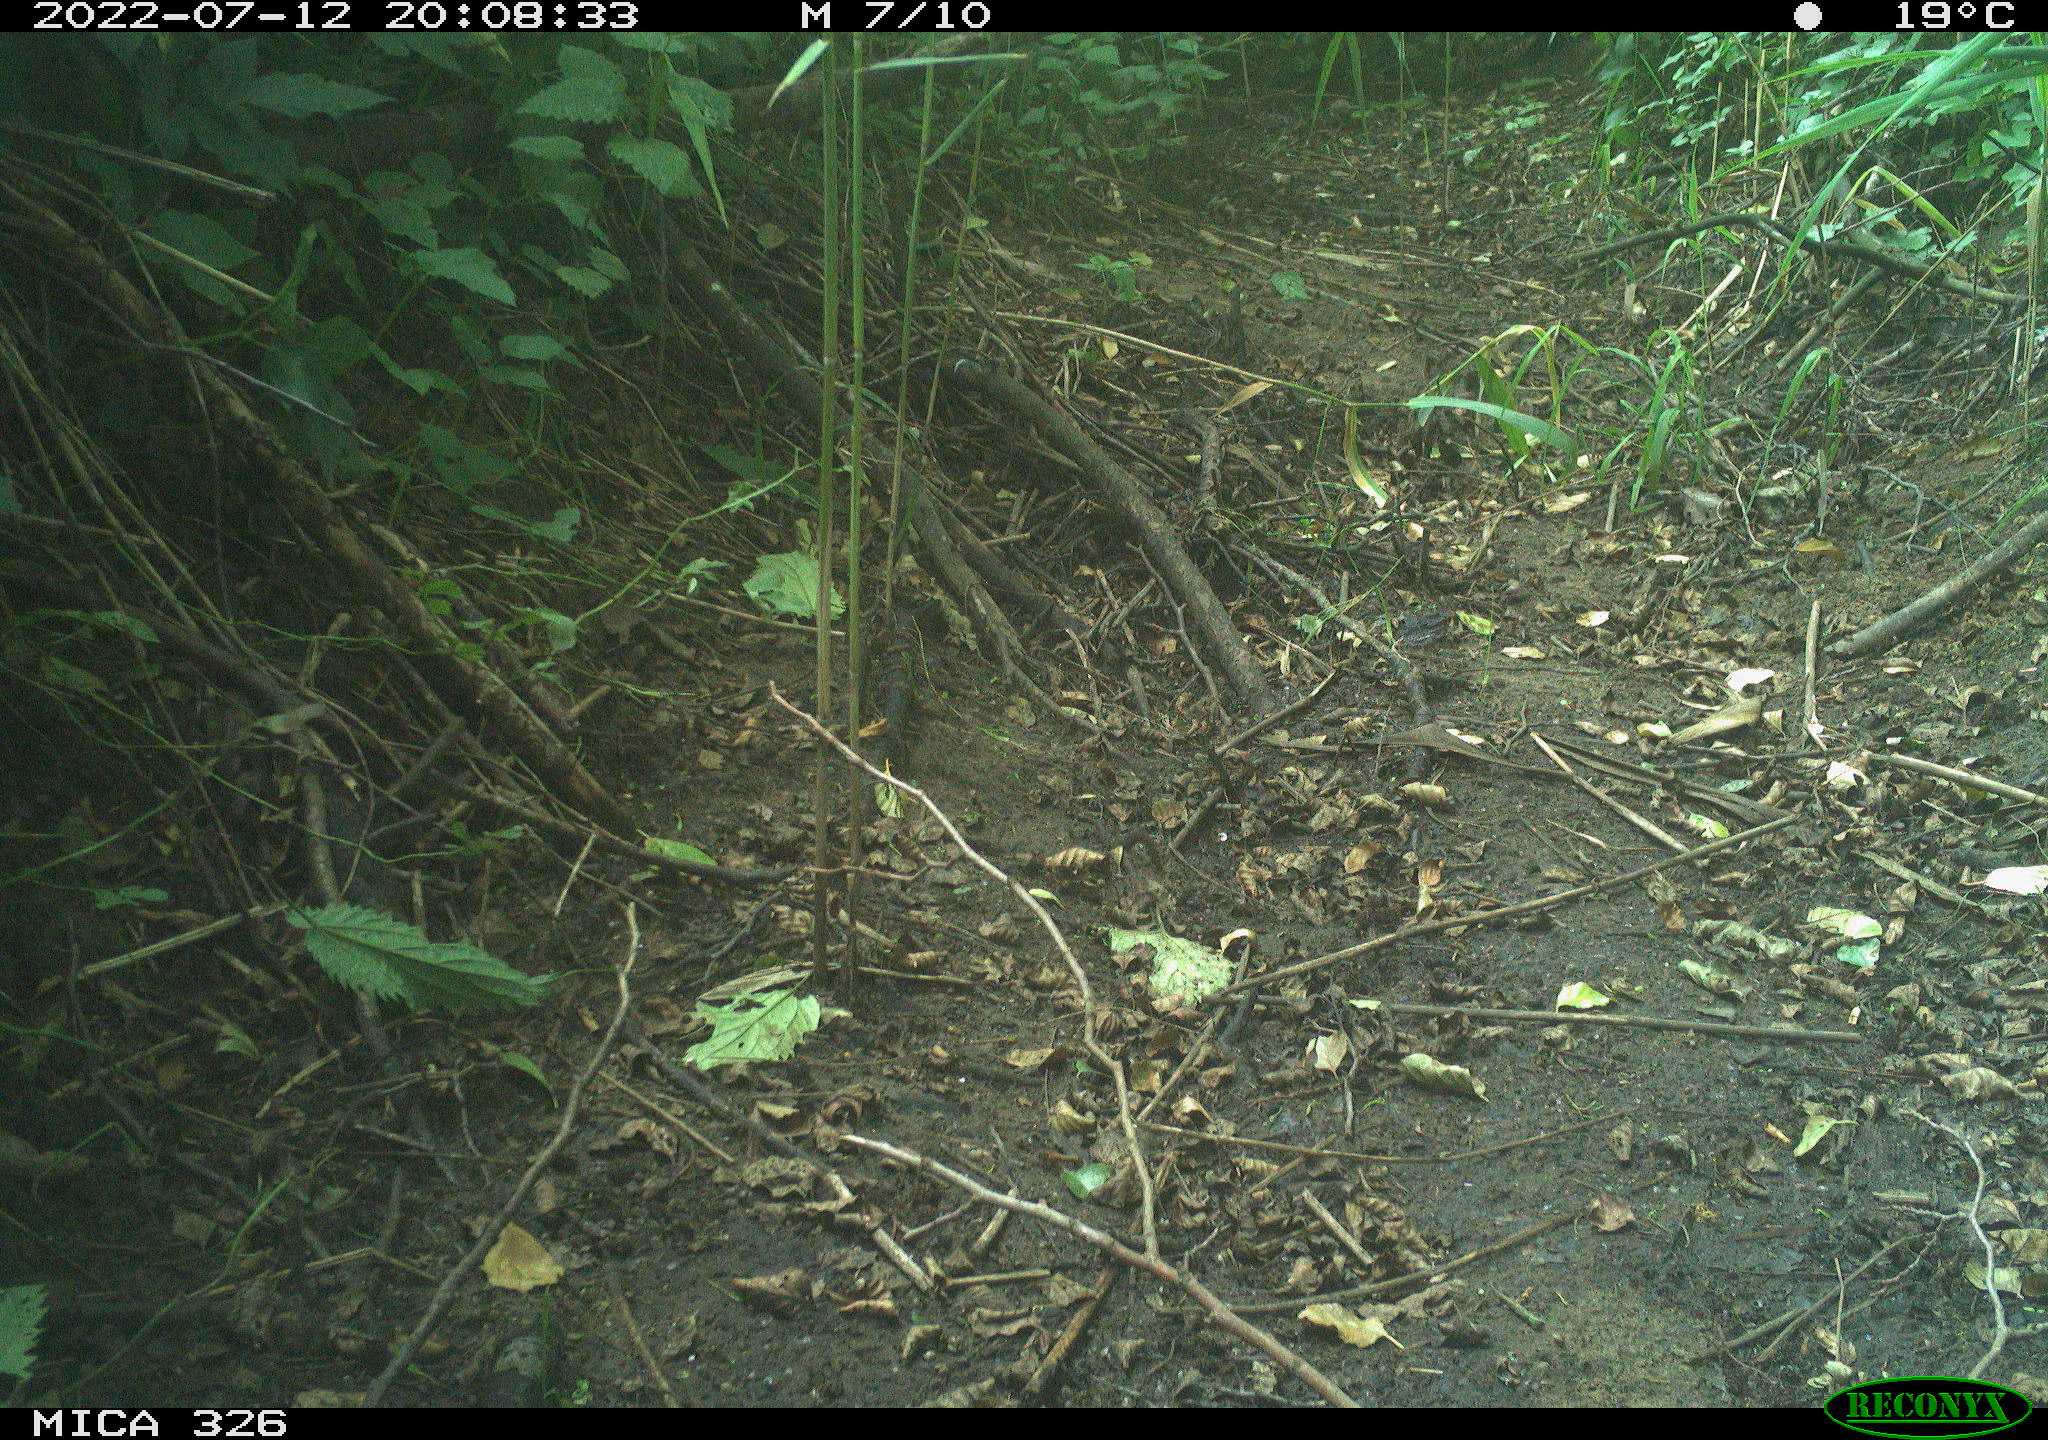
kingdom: Animalia
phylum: Chordata
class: Aves
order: Passeriformes
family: Turdidae
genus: Turdus
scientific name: Turdus philomelos
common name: Song thrush
